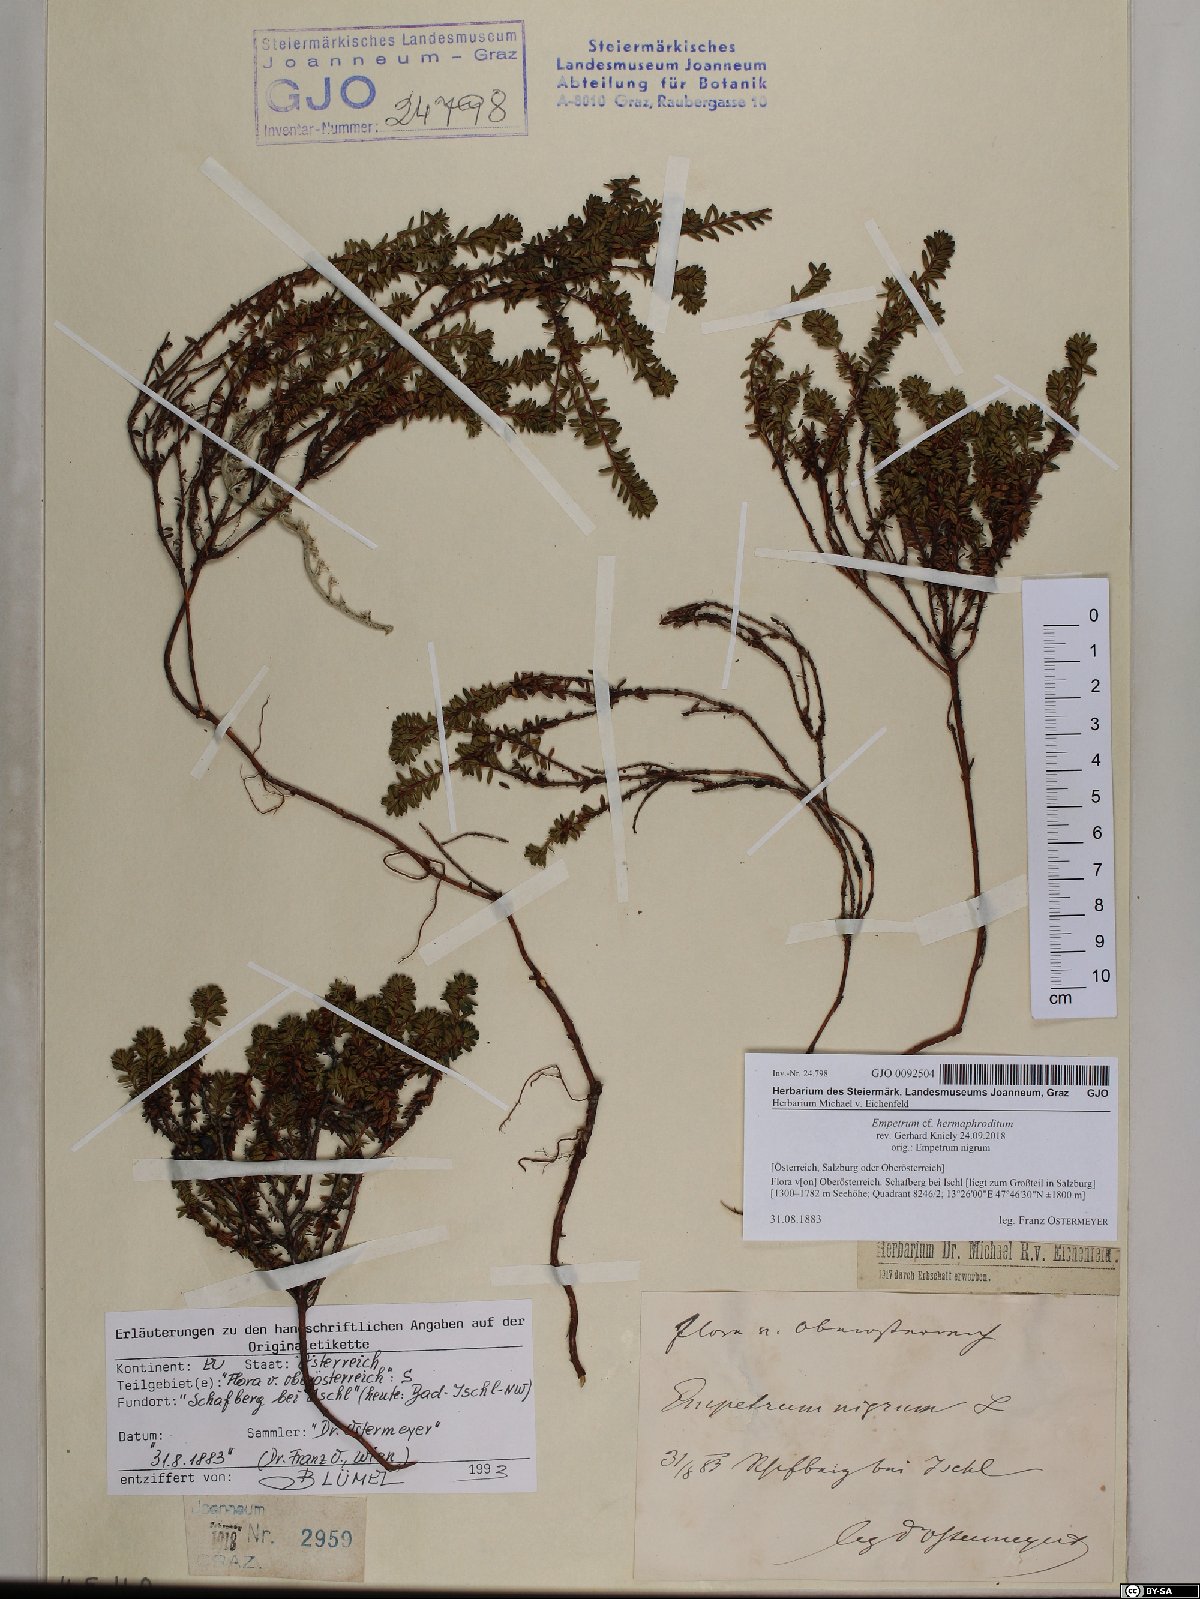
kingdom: Plantae
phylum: Tracheophyta
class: Magnoliopsida
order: Ericales
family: Ericaceae
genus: Empetrum
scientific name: Empetrum hermaphroditum
